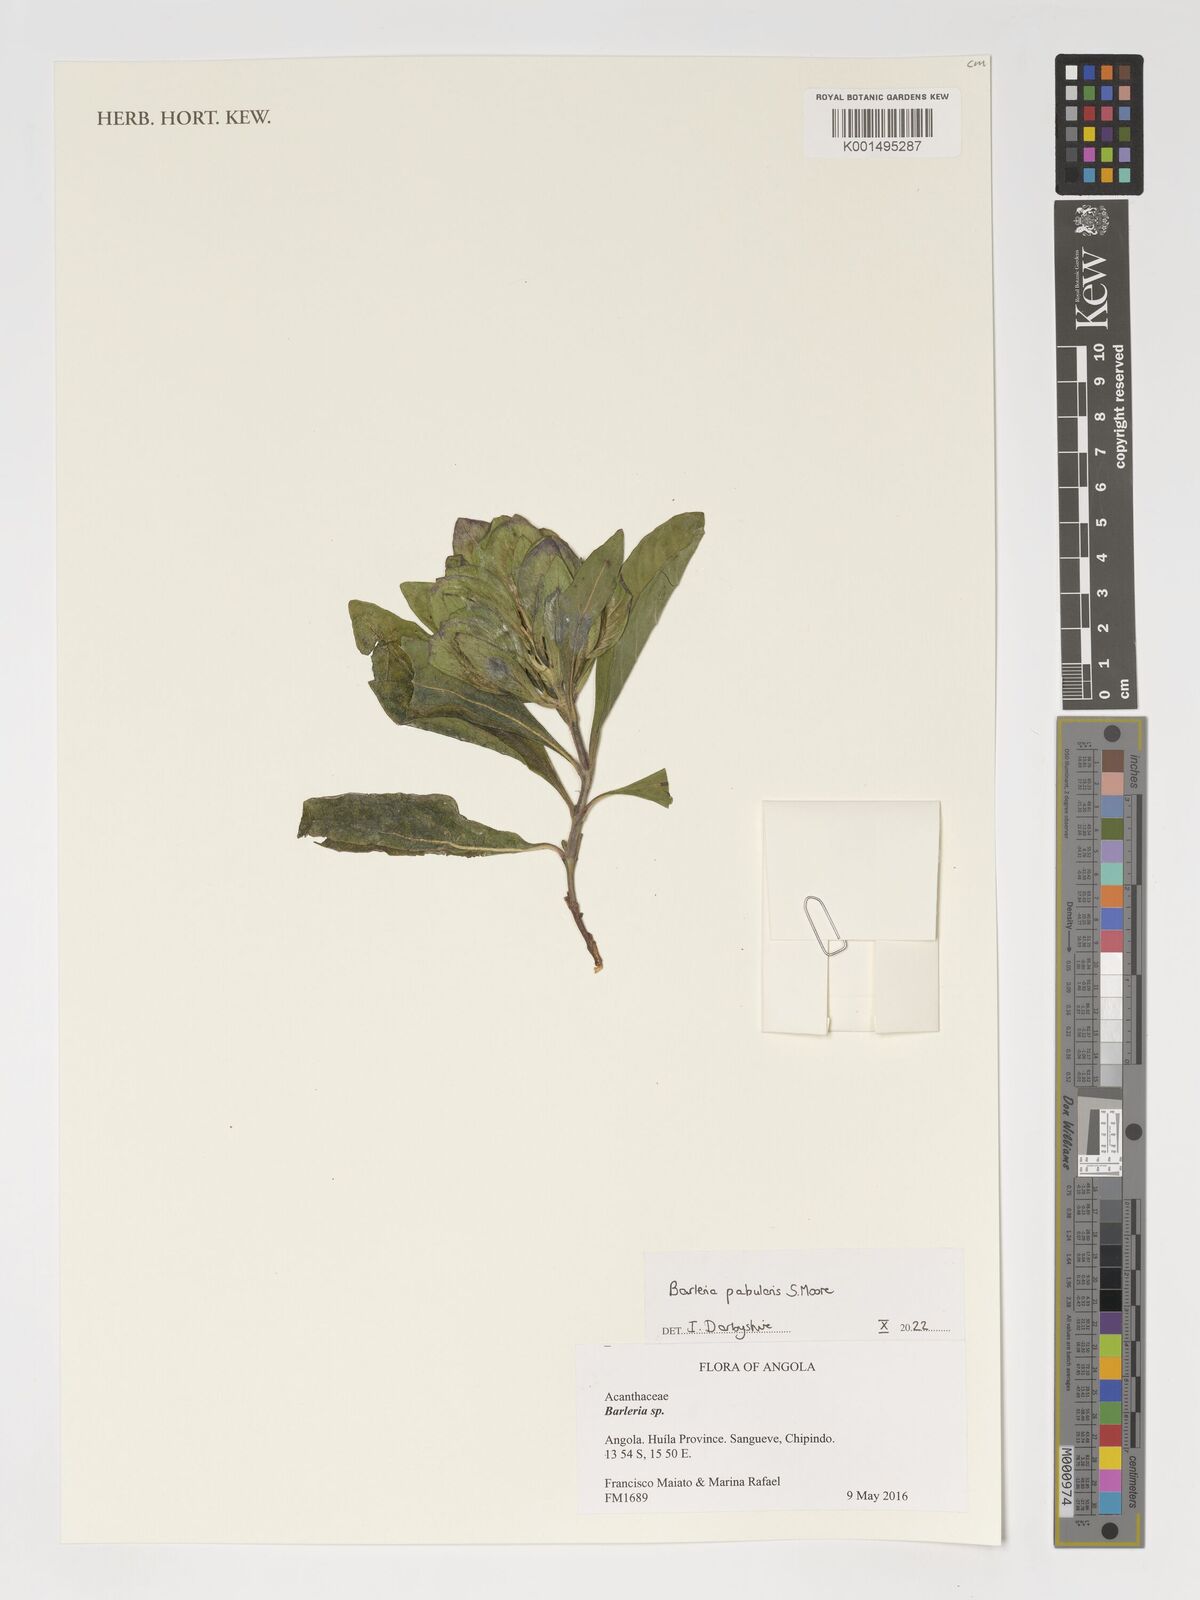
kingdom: Plantae
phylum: Tracheophyta
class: Magnoliopsida
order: Lamiales
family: Acanthaceae
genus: Barleria
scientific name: Barleria pabularis
